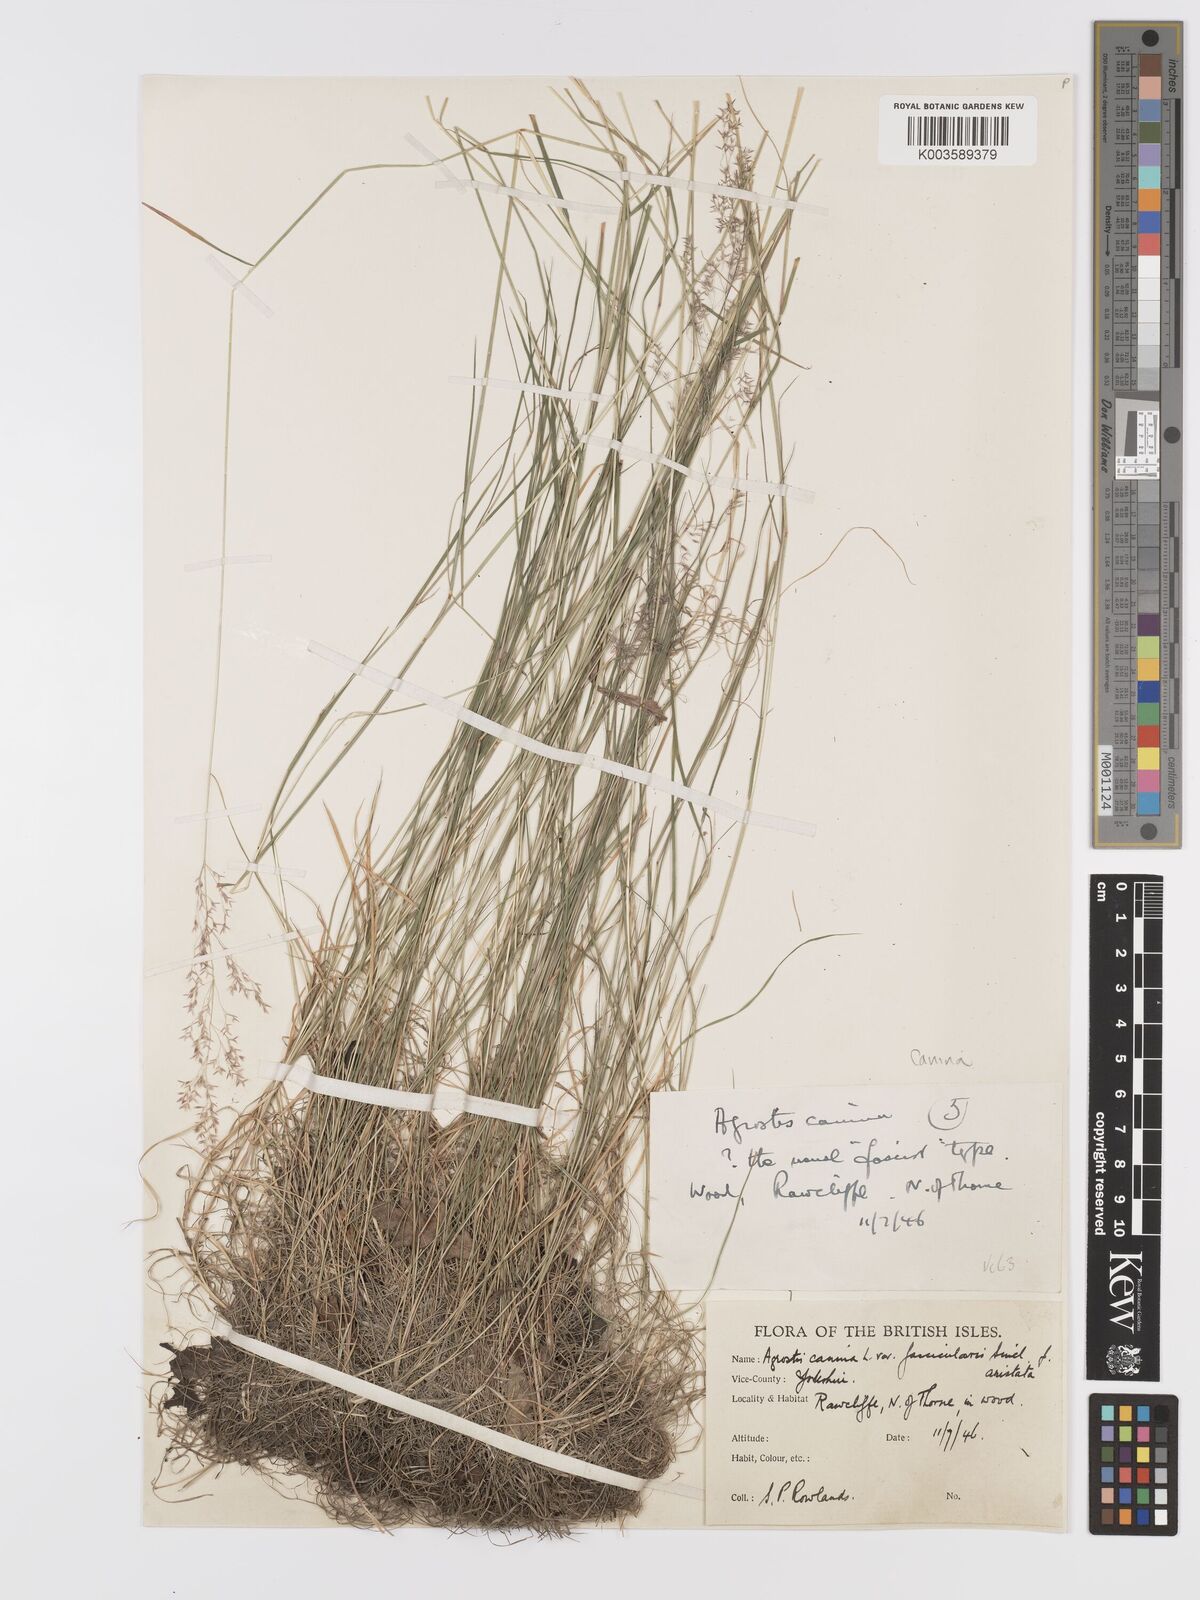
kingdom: Plantae
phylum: Tracheophyta
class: Liliopsida
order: Poales
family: Poaceae
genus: Agrostis
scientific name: Agrostis canina
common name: Velvet bent
